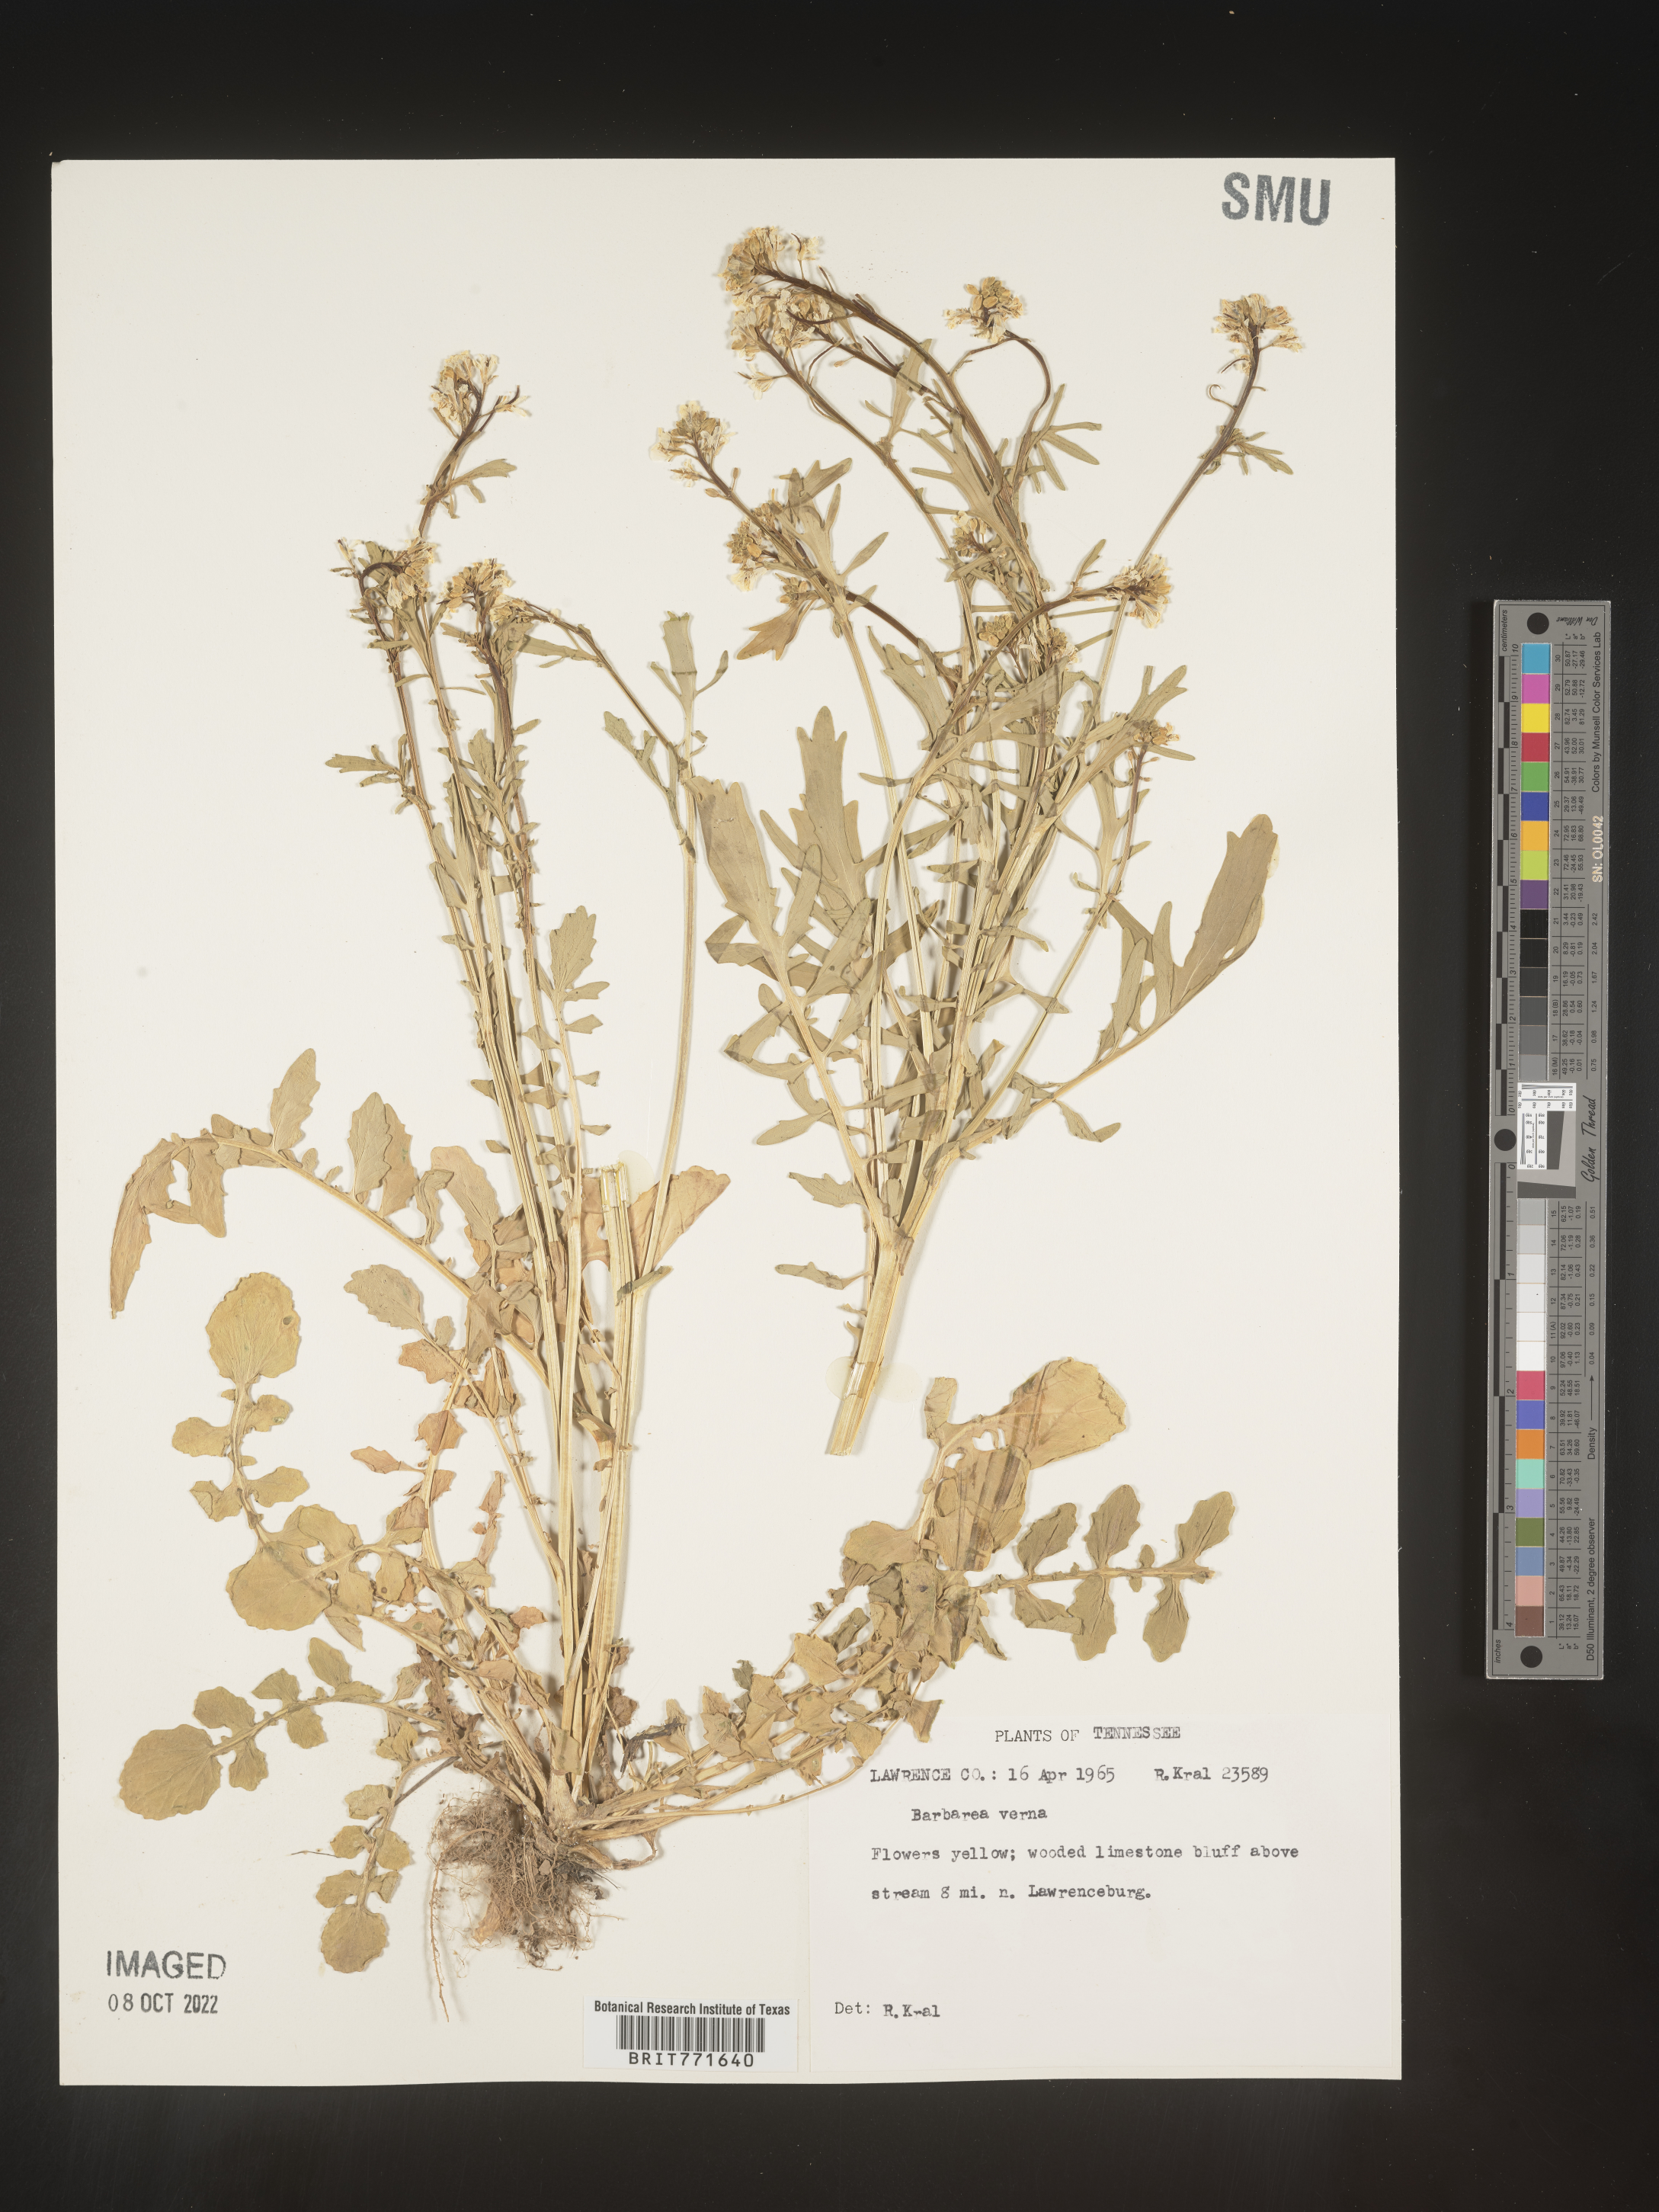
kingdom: Plantae
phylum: Tracheophyta
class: Magnoliopsida
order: Brassicales
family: Brassicaceae
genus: Barbarea
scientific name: Barbarea verna
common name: American cress
